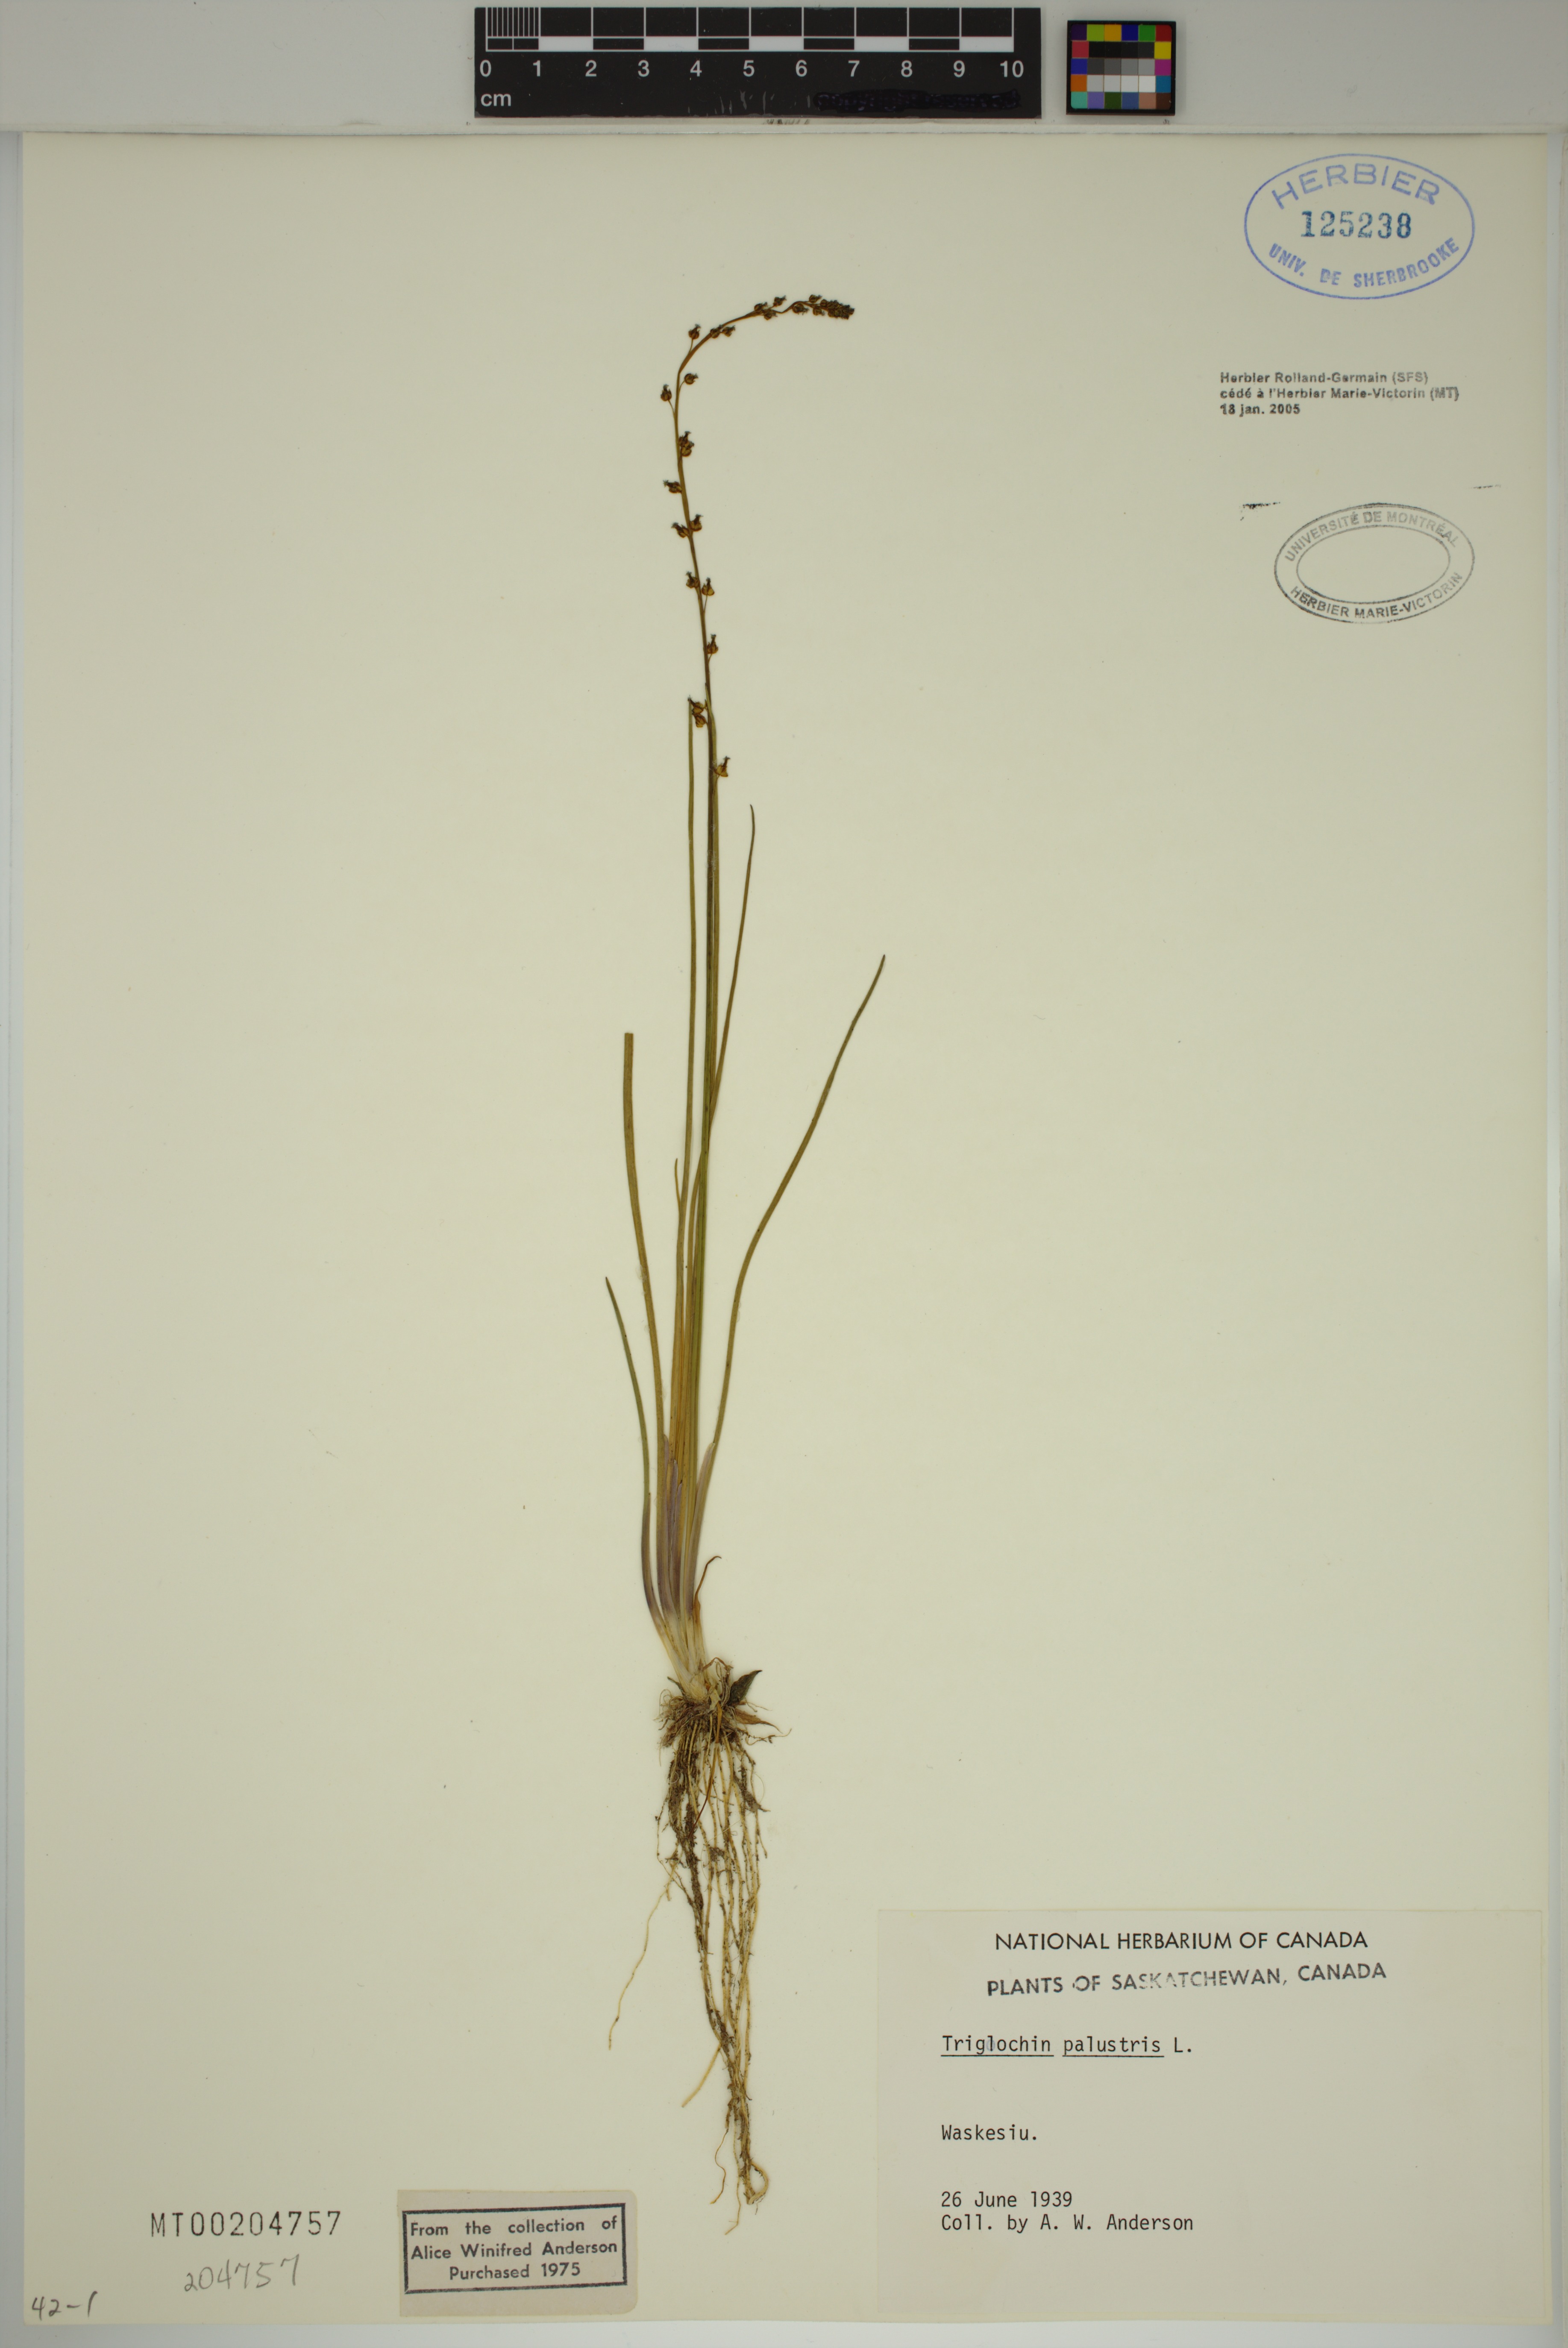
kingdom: Plantae
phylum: Tracheophyta
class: Liliopsida
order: Alismatales
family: Juncaginaceae
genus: Triglochin
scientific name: Triglochin palustris
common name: Marsh arrowgrass
